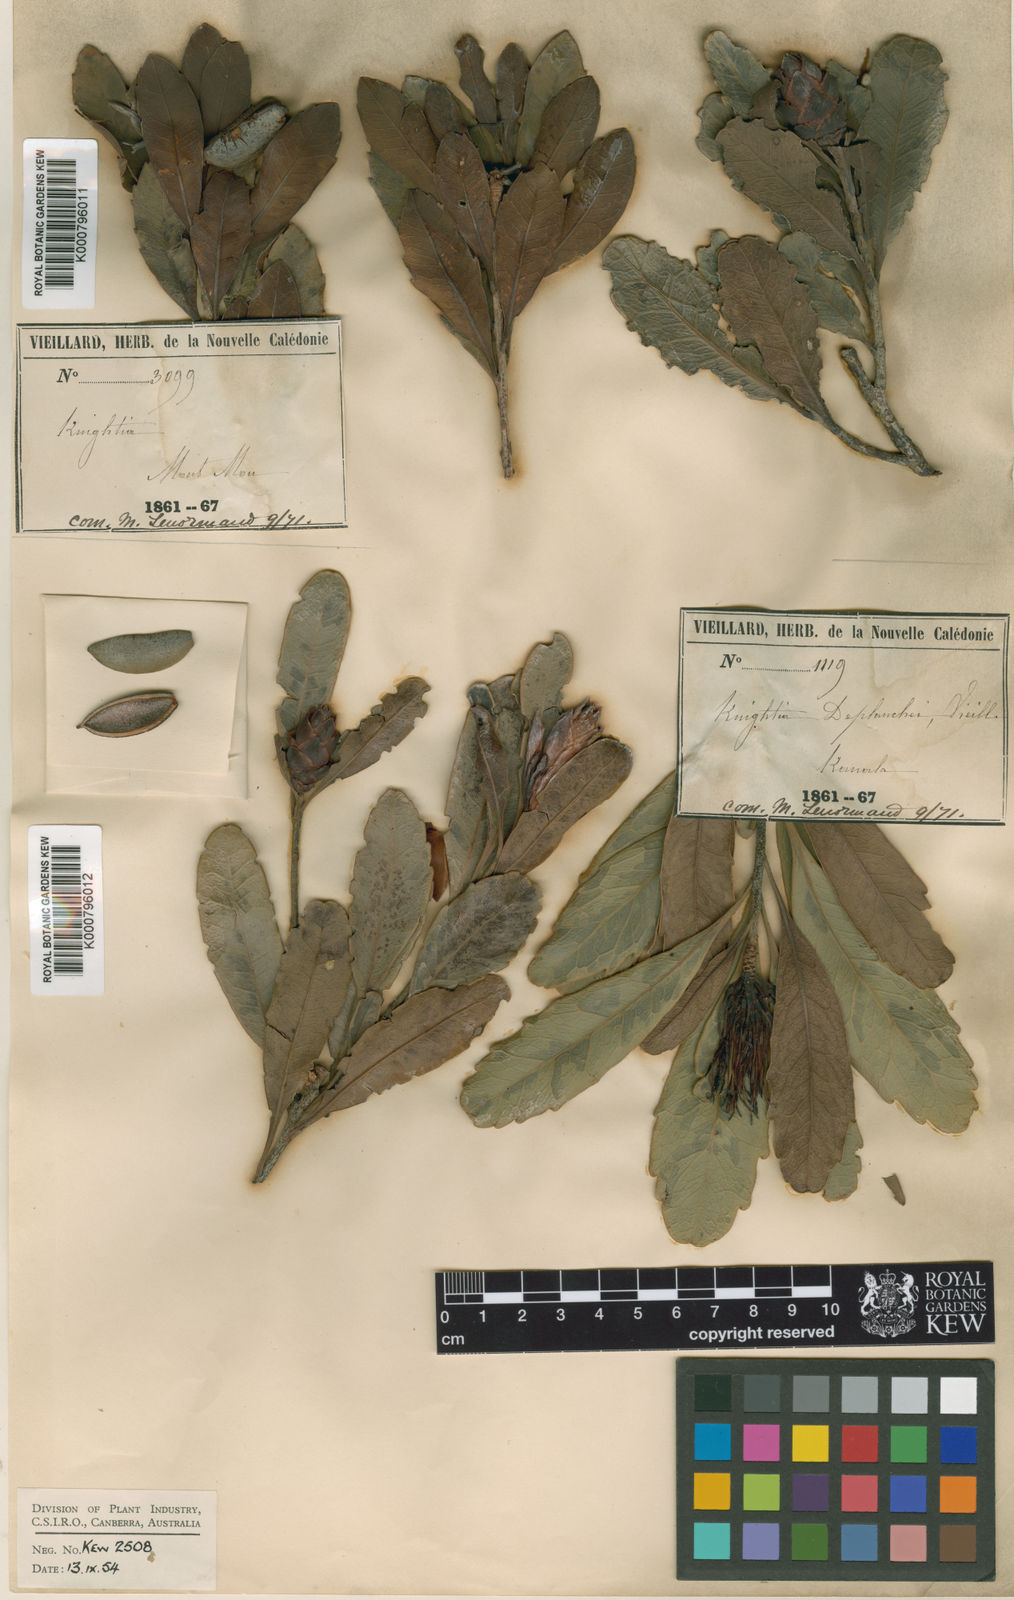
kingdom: Plantae
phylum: Tracheophyta
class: Magnoliopsida
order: Proteales
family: Proteaceae
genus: Eucarpha
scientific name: Eucarpha deplanchei
